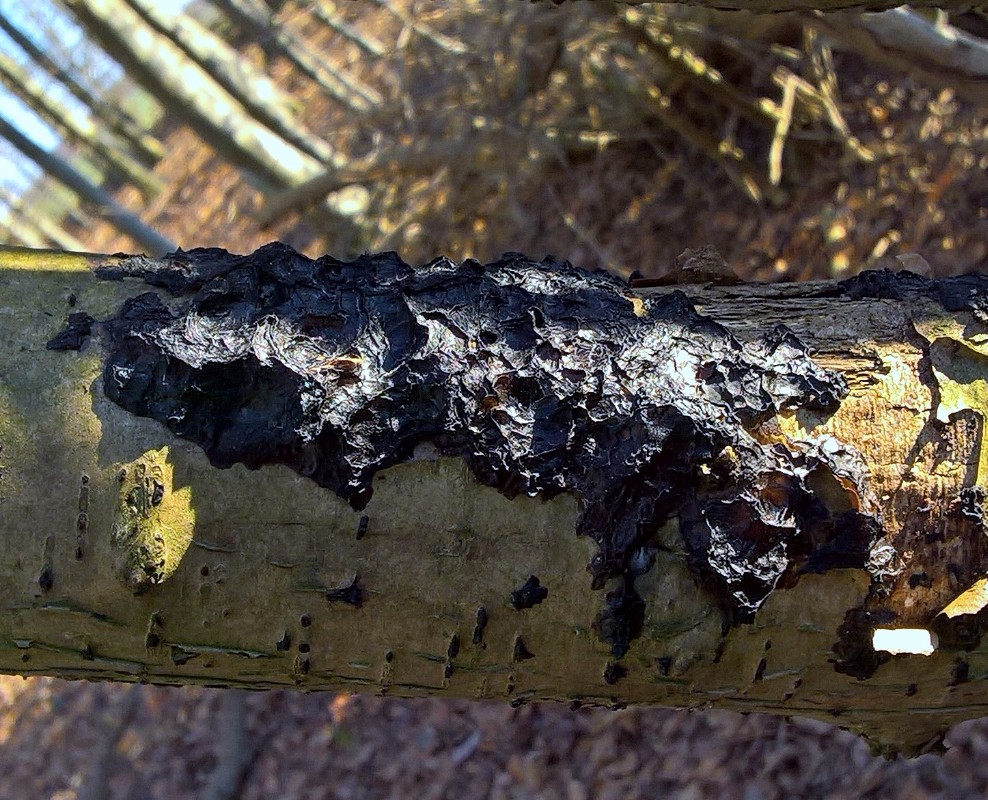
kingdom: Fungi
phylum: Basidiomycota
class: Agaricomycetes
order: Auriculariales
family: Auriculariaceae
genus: Exidia
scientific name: Exidia nigricans
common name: almindelig bævretop
